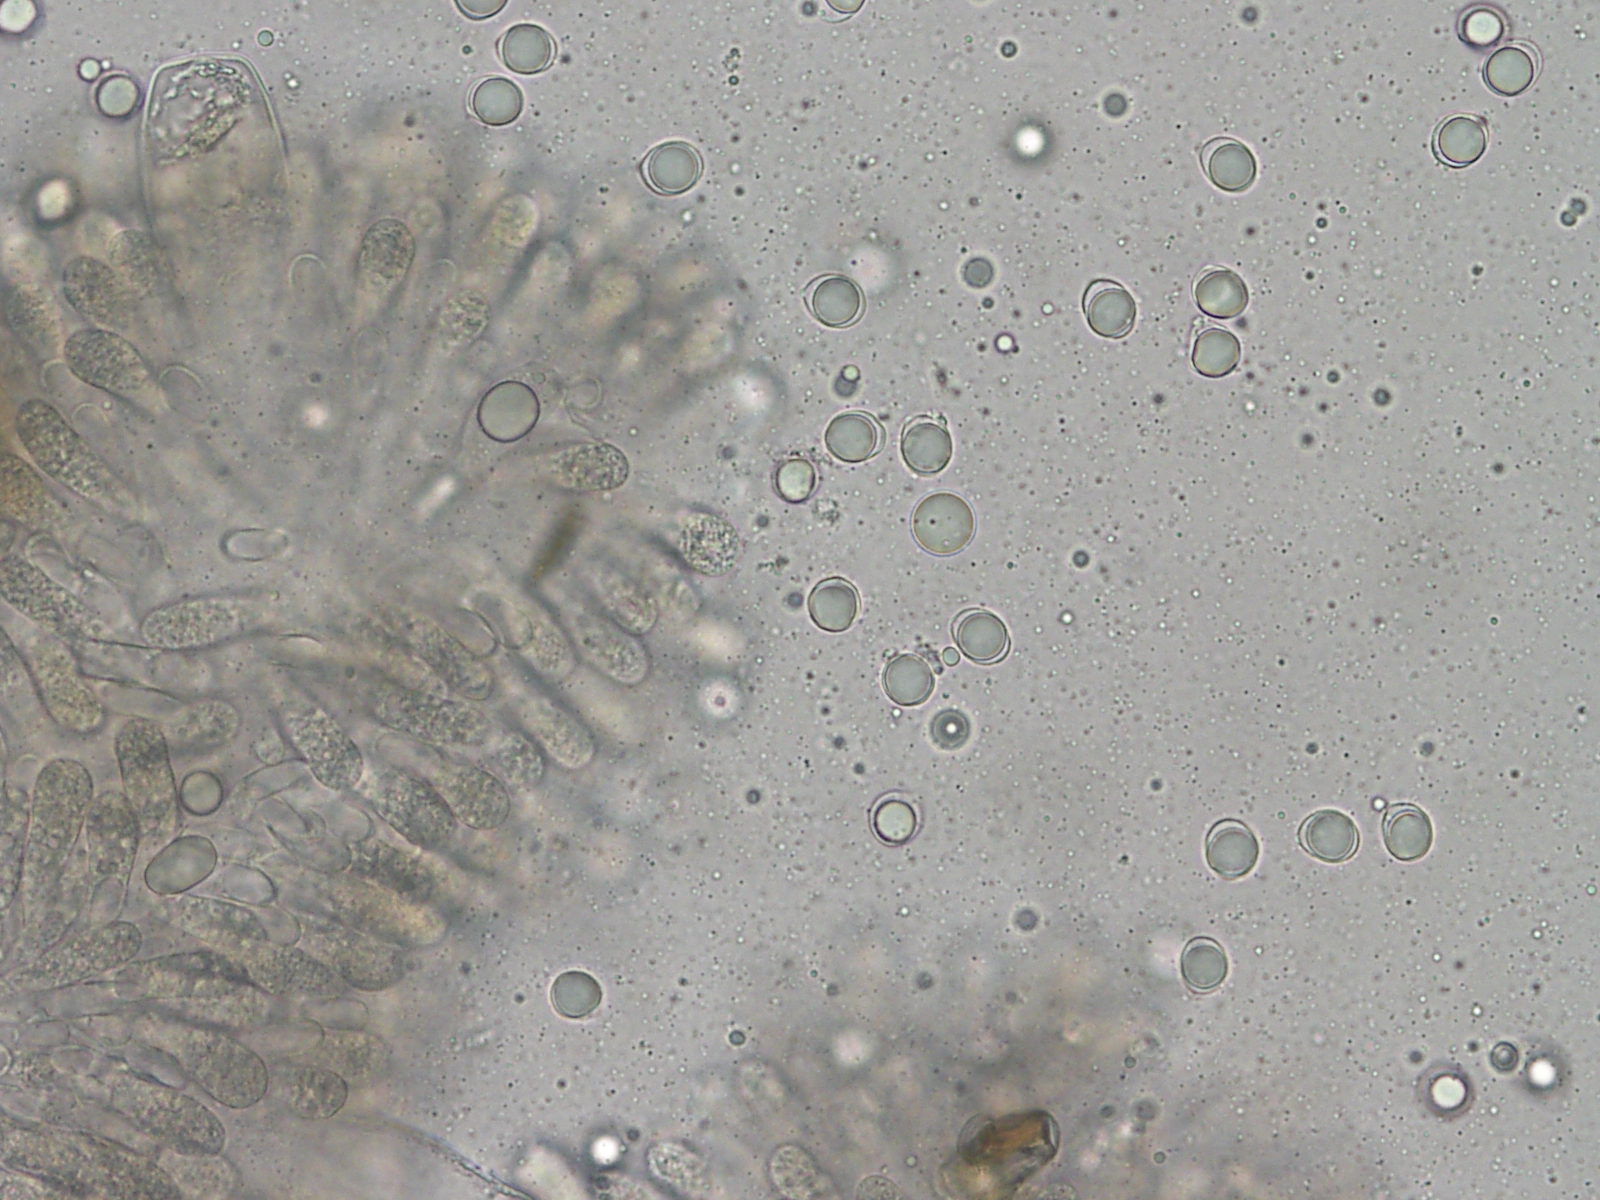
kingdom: Fungi
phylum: Basidiomycota
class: Agaricomycetes
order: Agaricales
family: Physalacriaceae
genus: Hymenopellis
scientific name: Hymenopellis radicata
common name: almindelig pælerodshat
